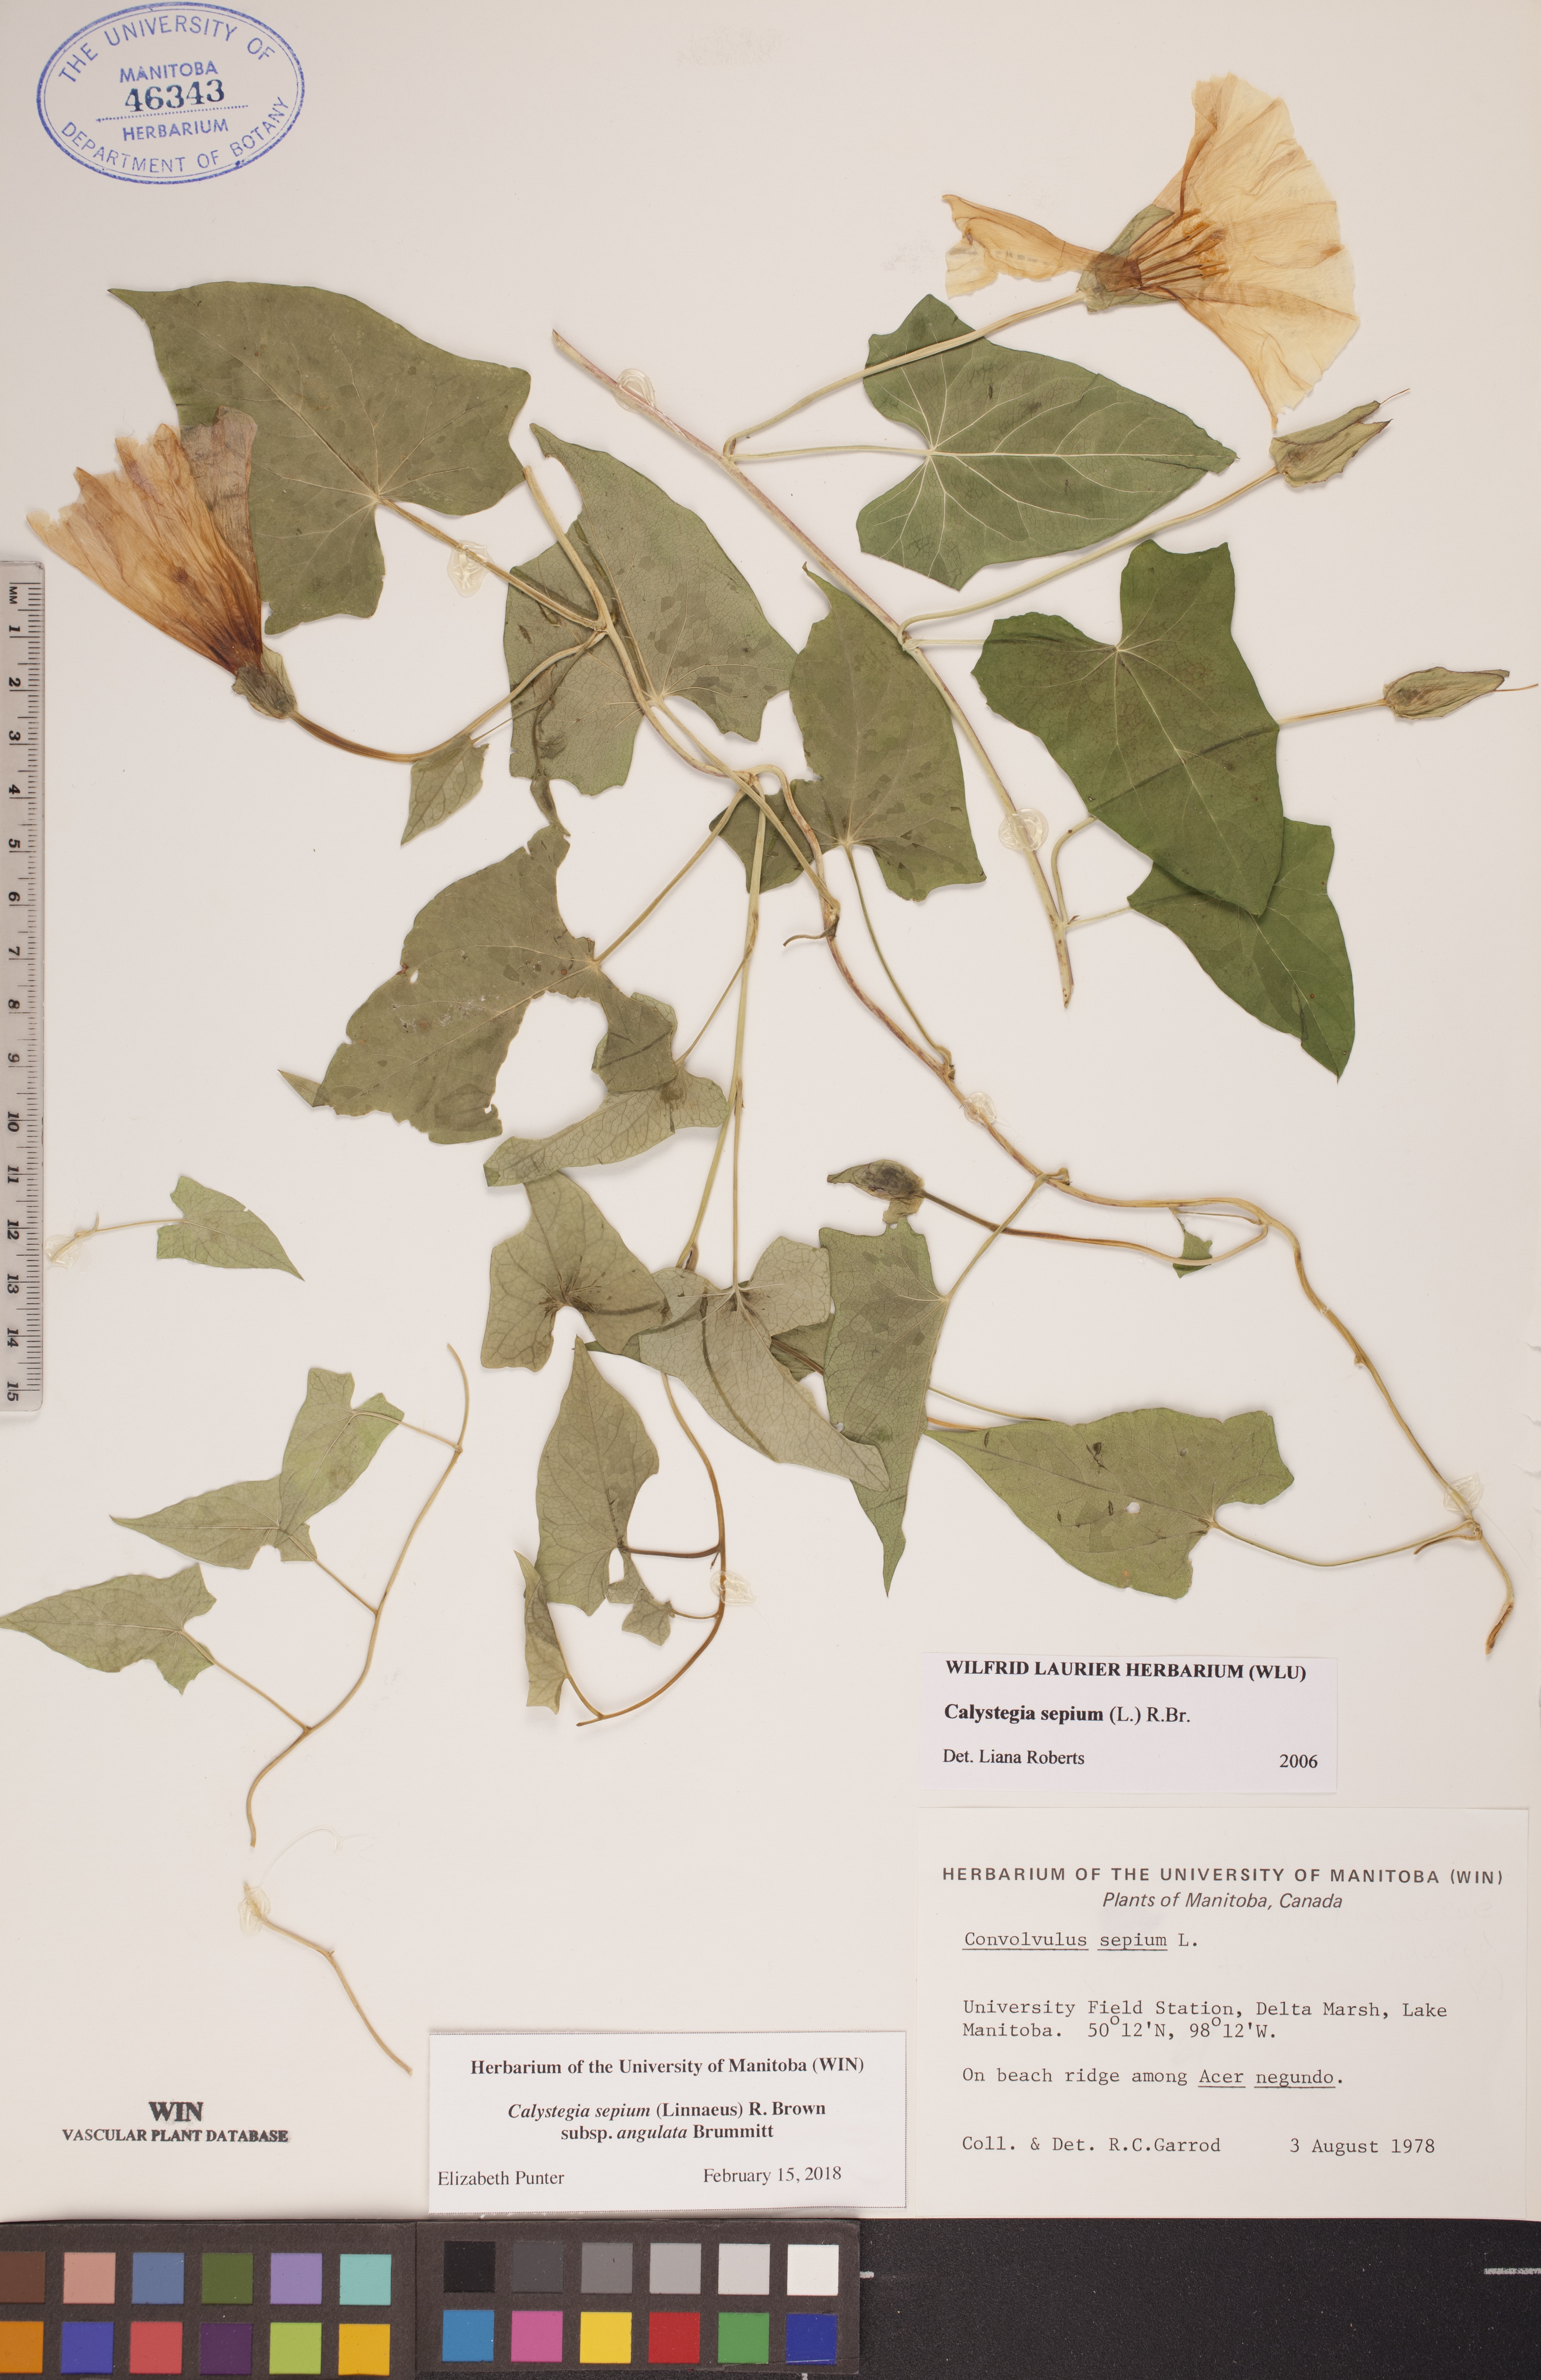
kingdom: Plantae
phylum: Tracheophyta
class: Magnoliopsida
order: Solanales
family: Convolvulaceae
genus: Calystegia
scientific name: Calystegia sepium
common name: Hedge bindweed
